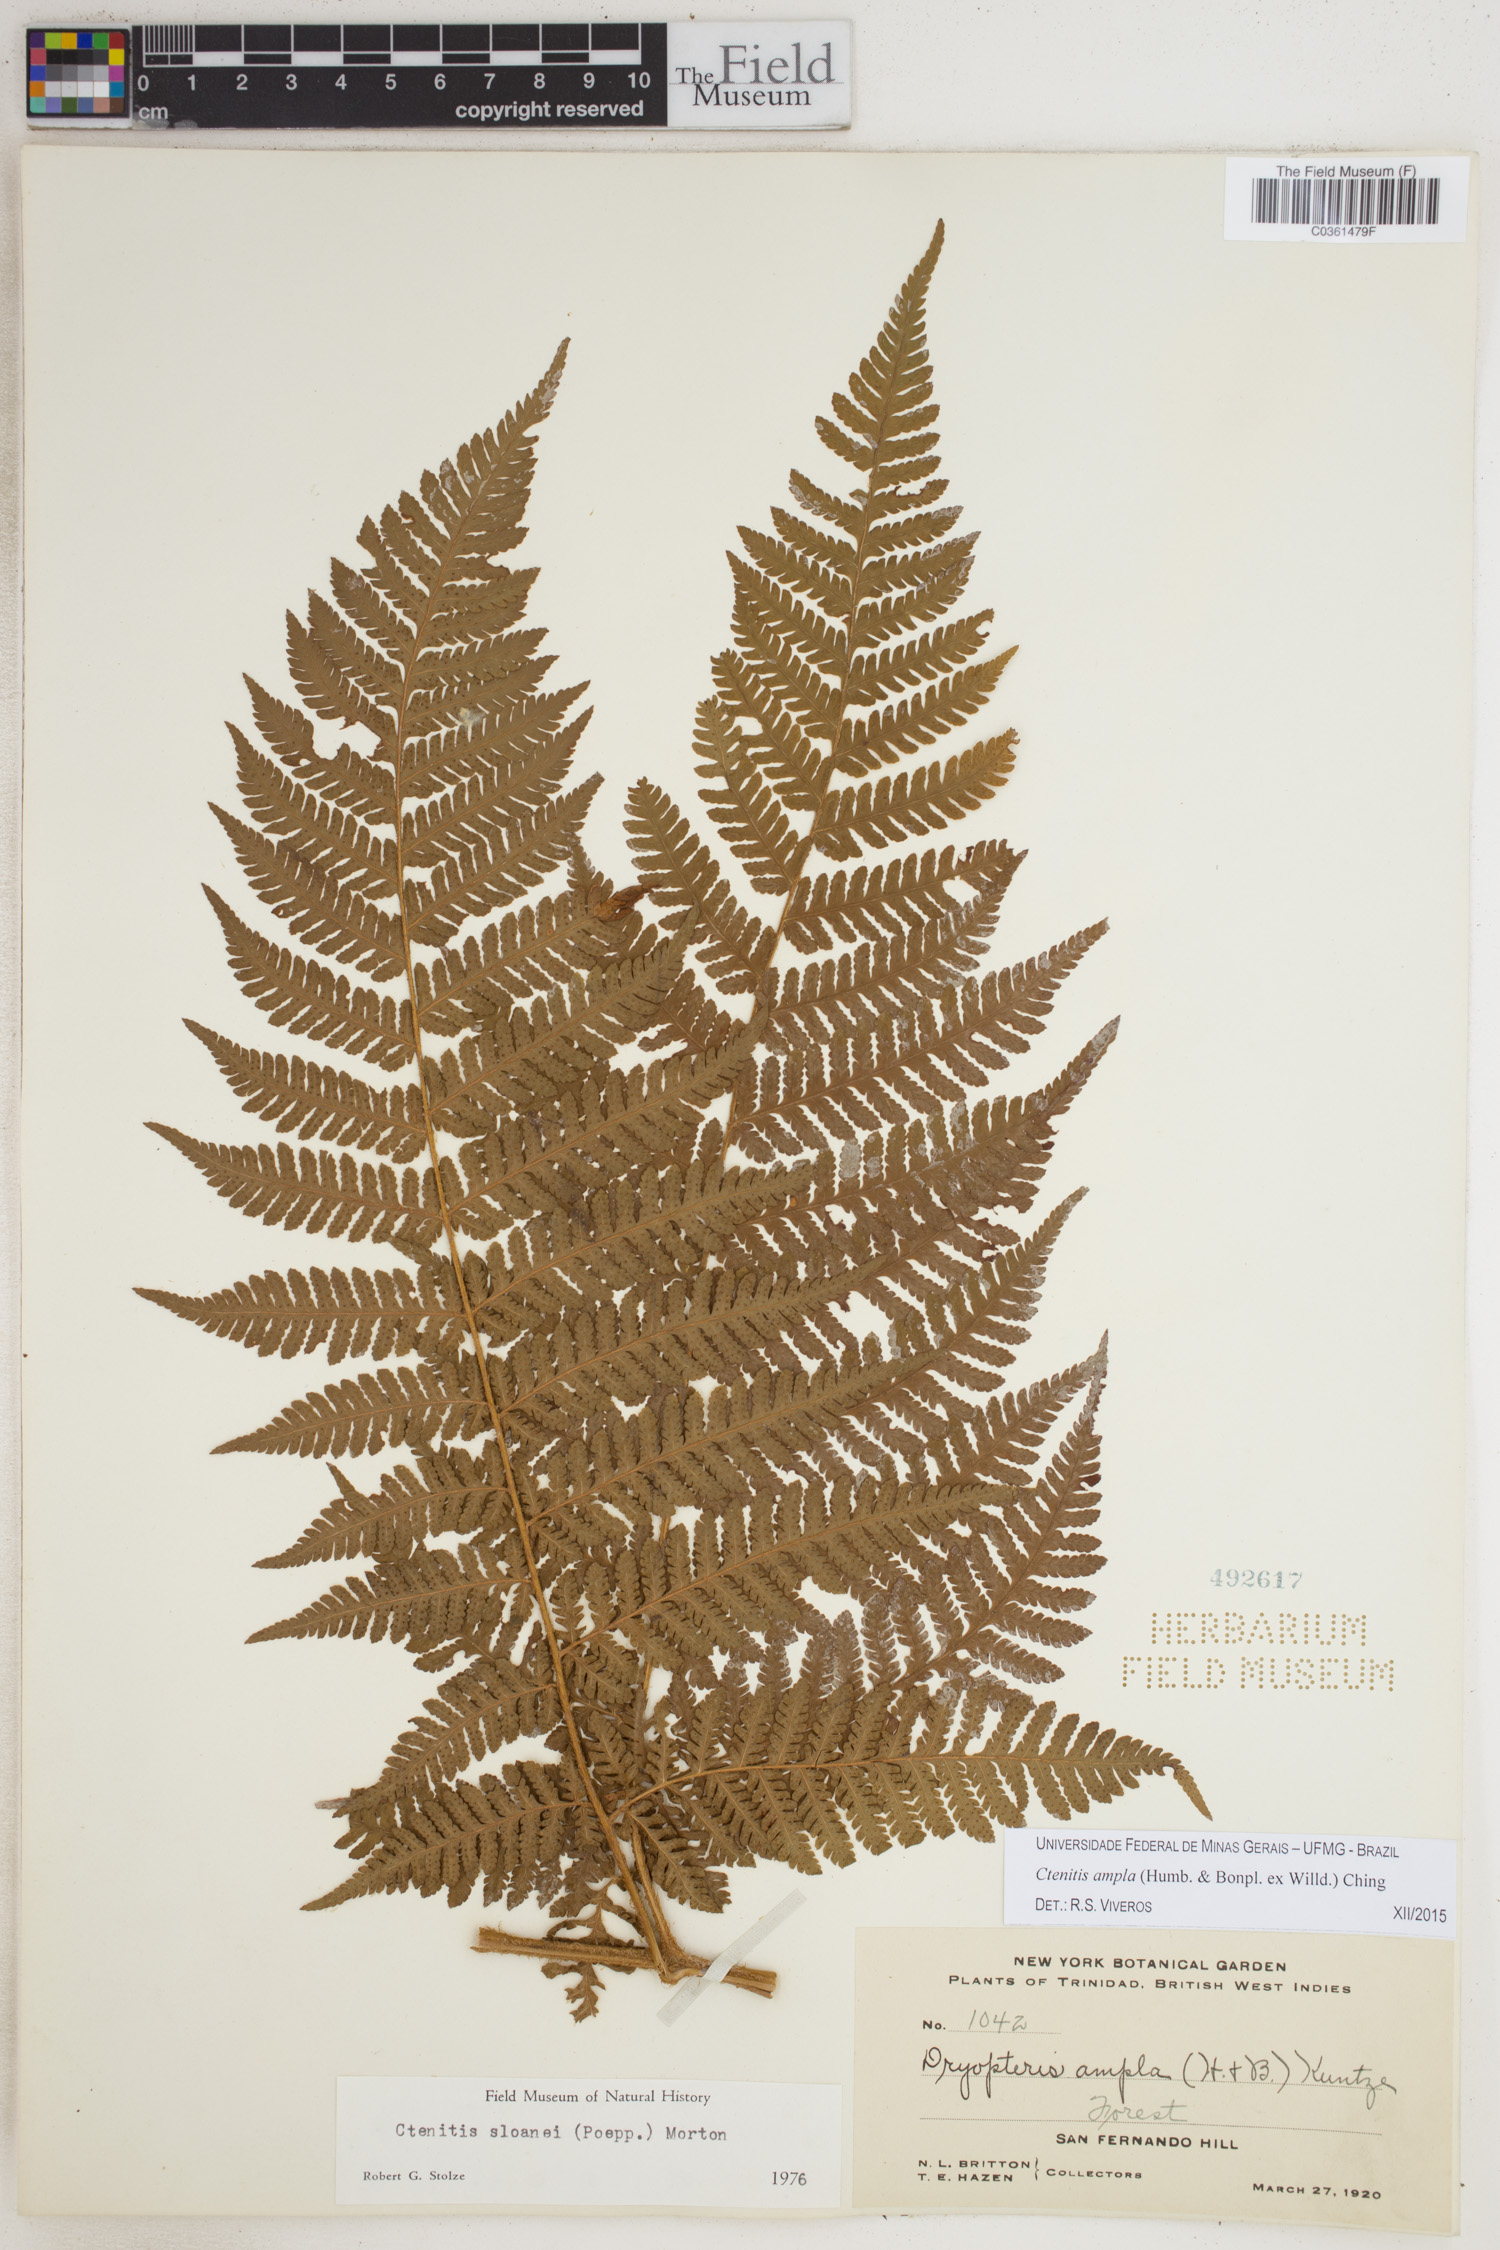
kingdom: Plantae
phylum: Tracheophyta
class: Polypodiopsida
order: Polypodiales
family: Dryopteridaceae
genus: Ctenitis
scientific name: Ctenitis sloanei
